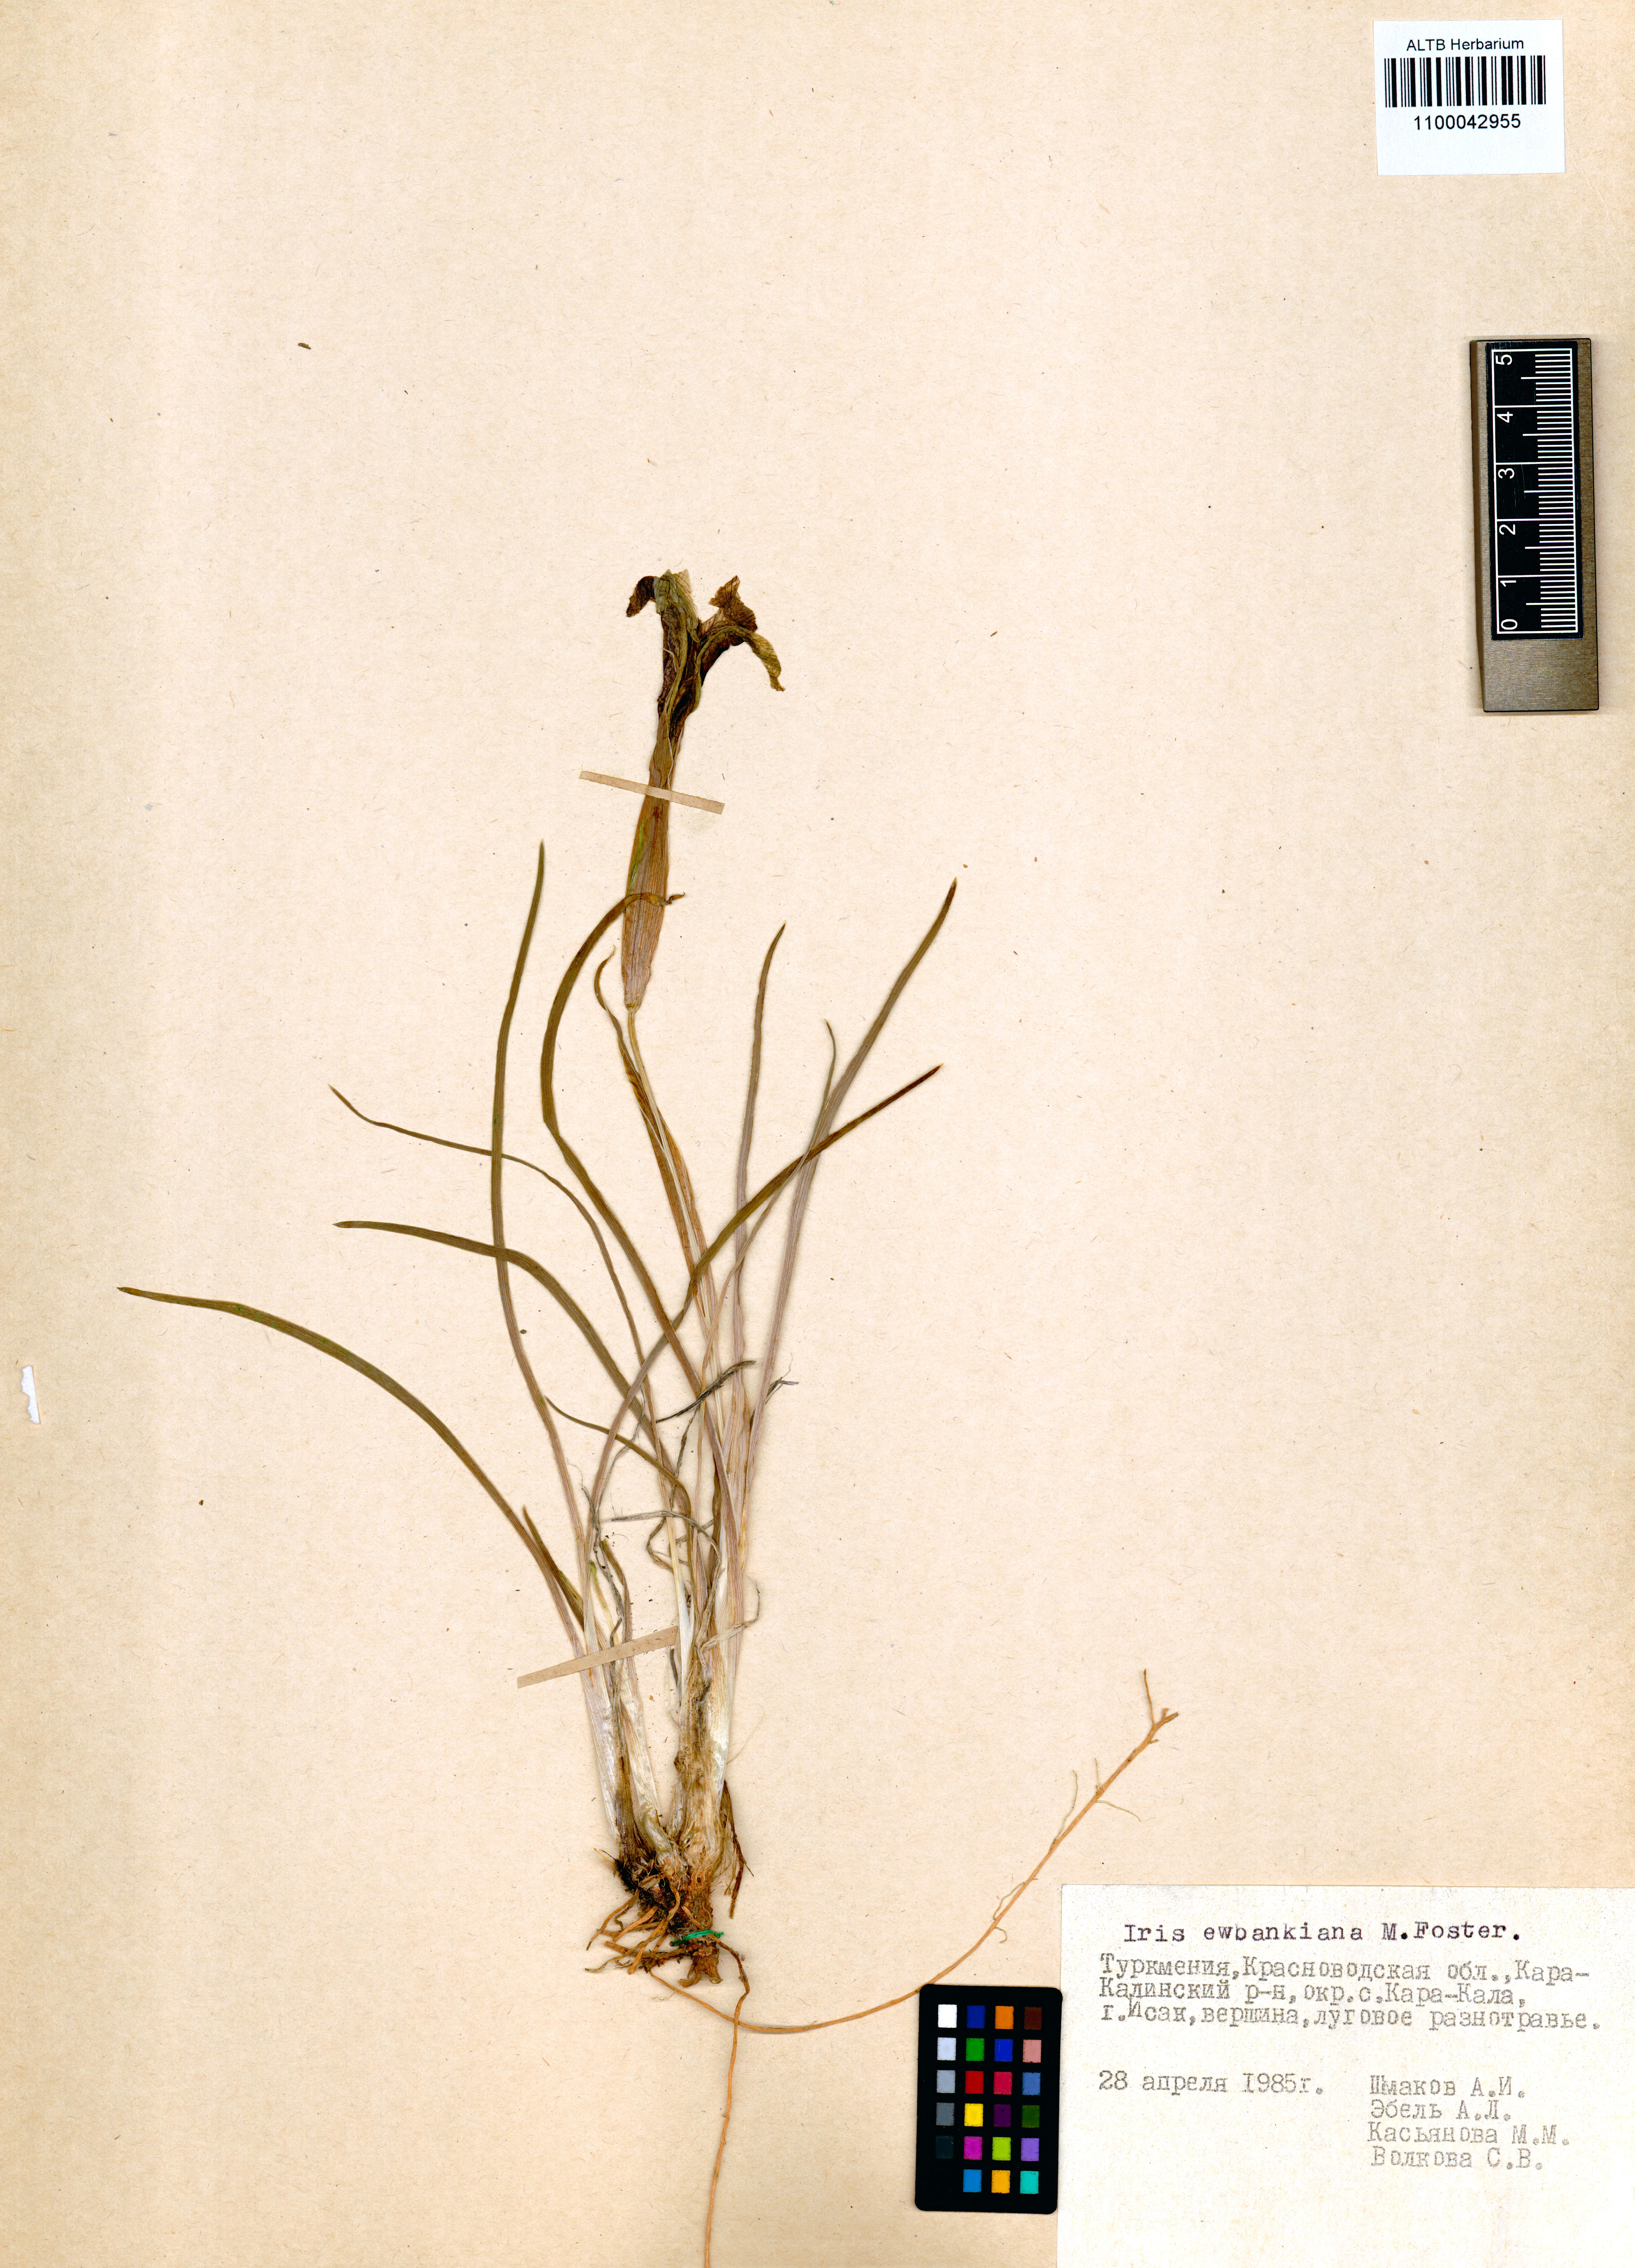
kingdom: Plantae
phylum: Tracheophyta
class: Liliopsida
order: Asparagales
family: Iridaceae
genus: Iris
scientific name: Iris acutiloba
